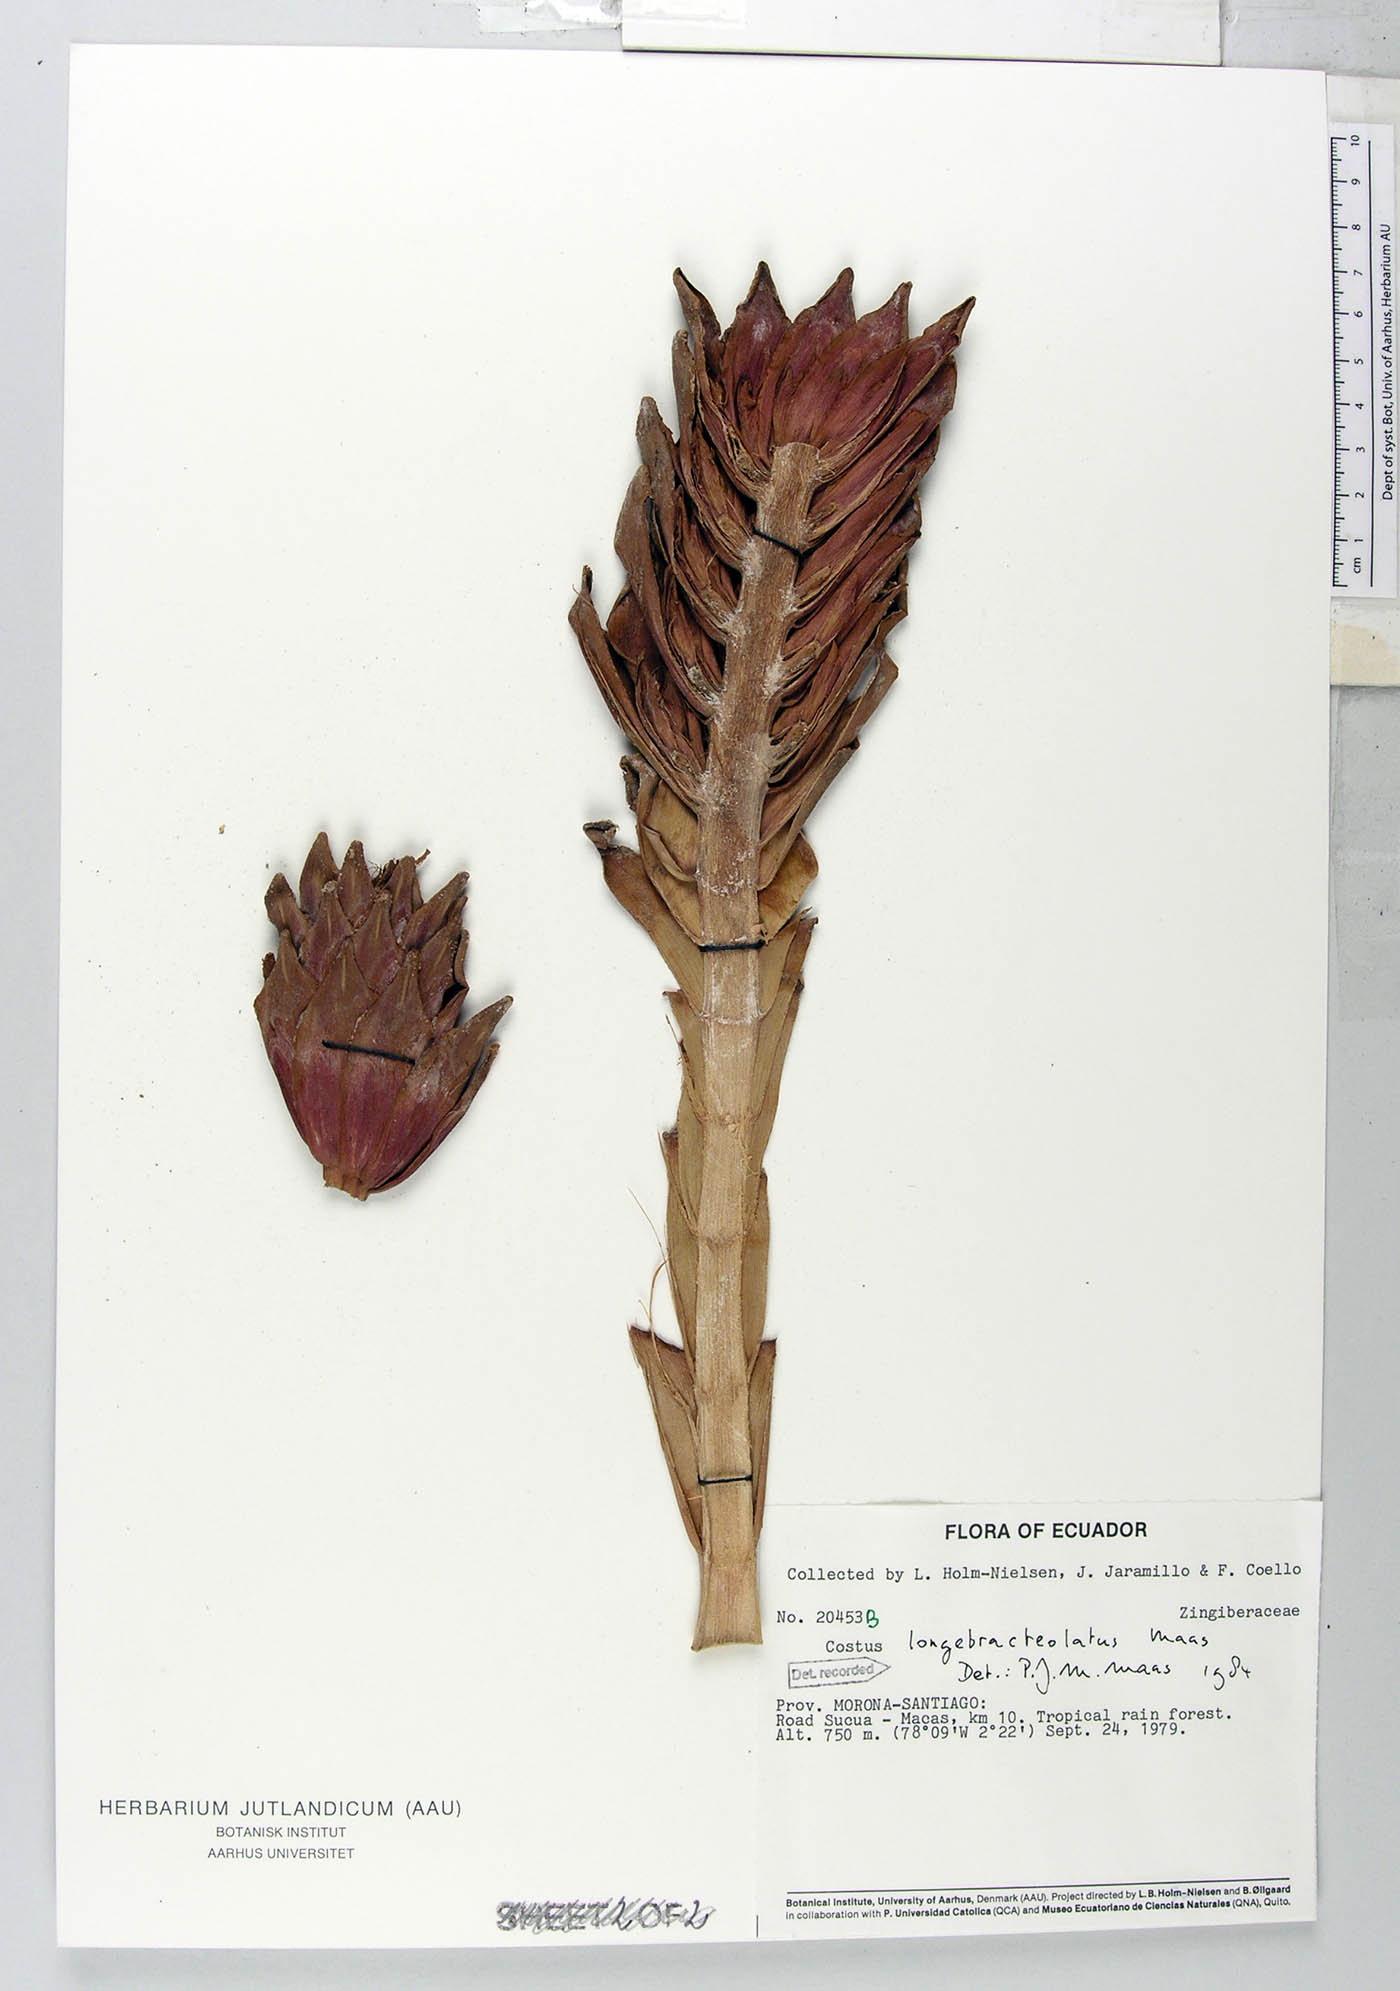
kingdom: Plantae
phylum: Tracheophyta
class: Liliopsida
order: Zingiberales
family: Costaceae
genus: Costus
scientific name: Costus longebracteolatus
